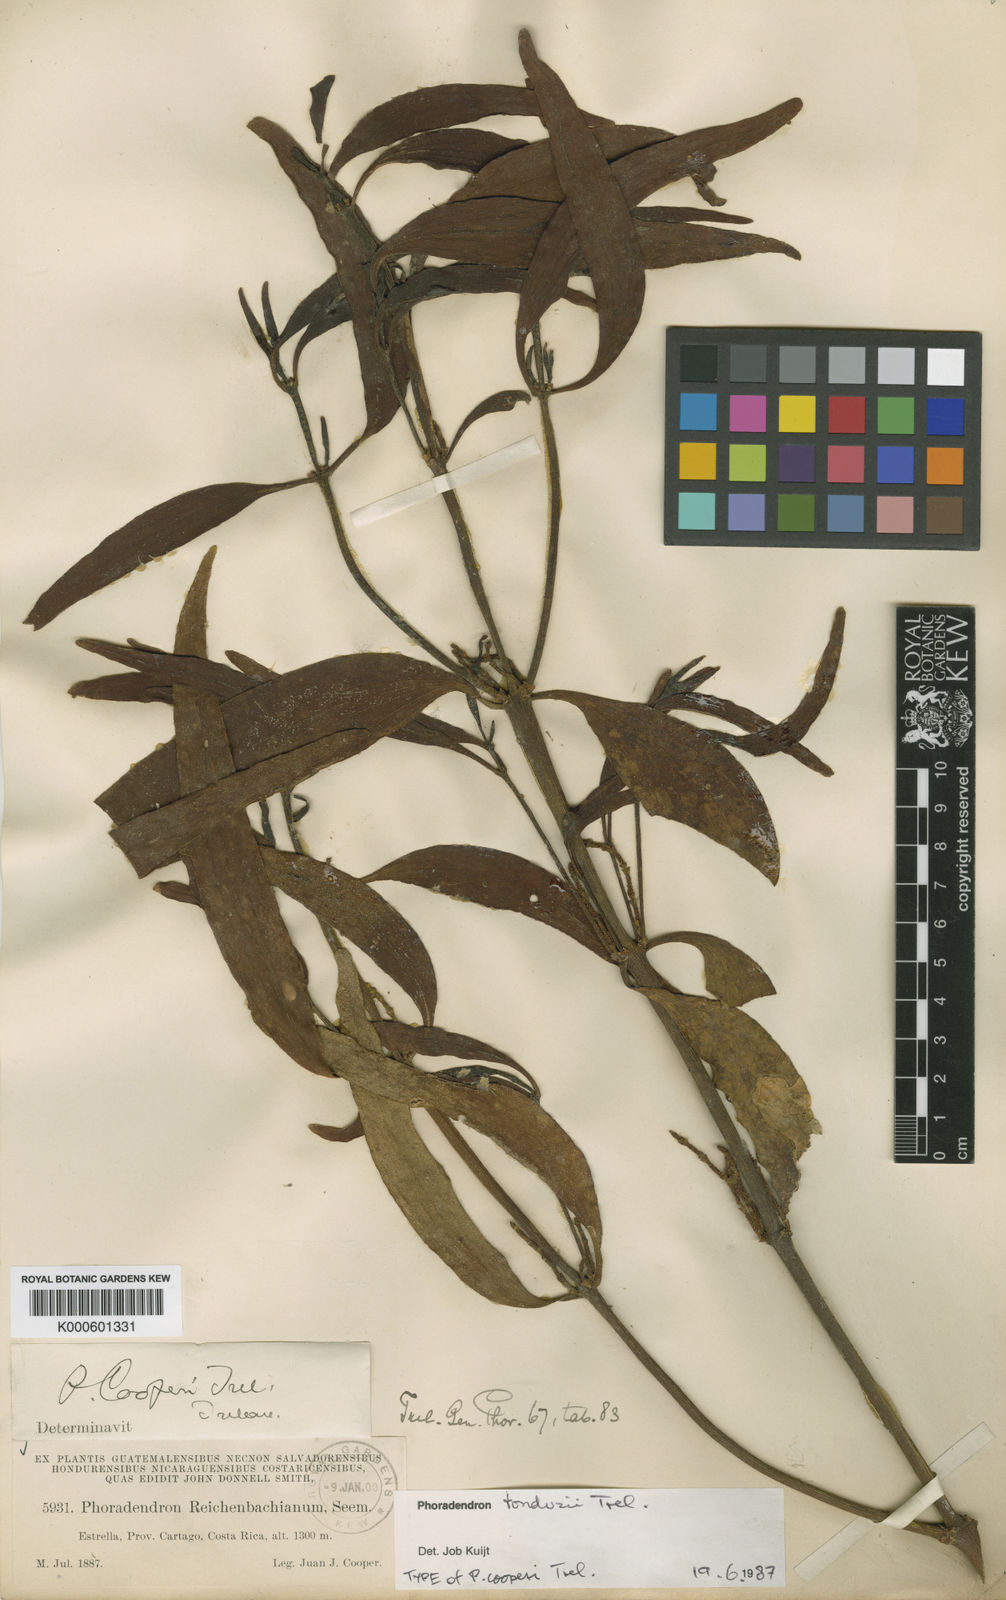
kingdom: Plantae
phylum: Tracheophyta
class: Magnoliopsida
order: Santalales
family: Viscaceae
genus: Phoradendron
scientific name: Phoradendron tonduzii
